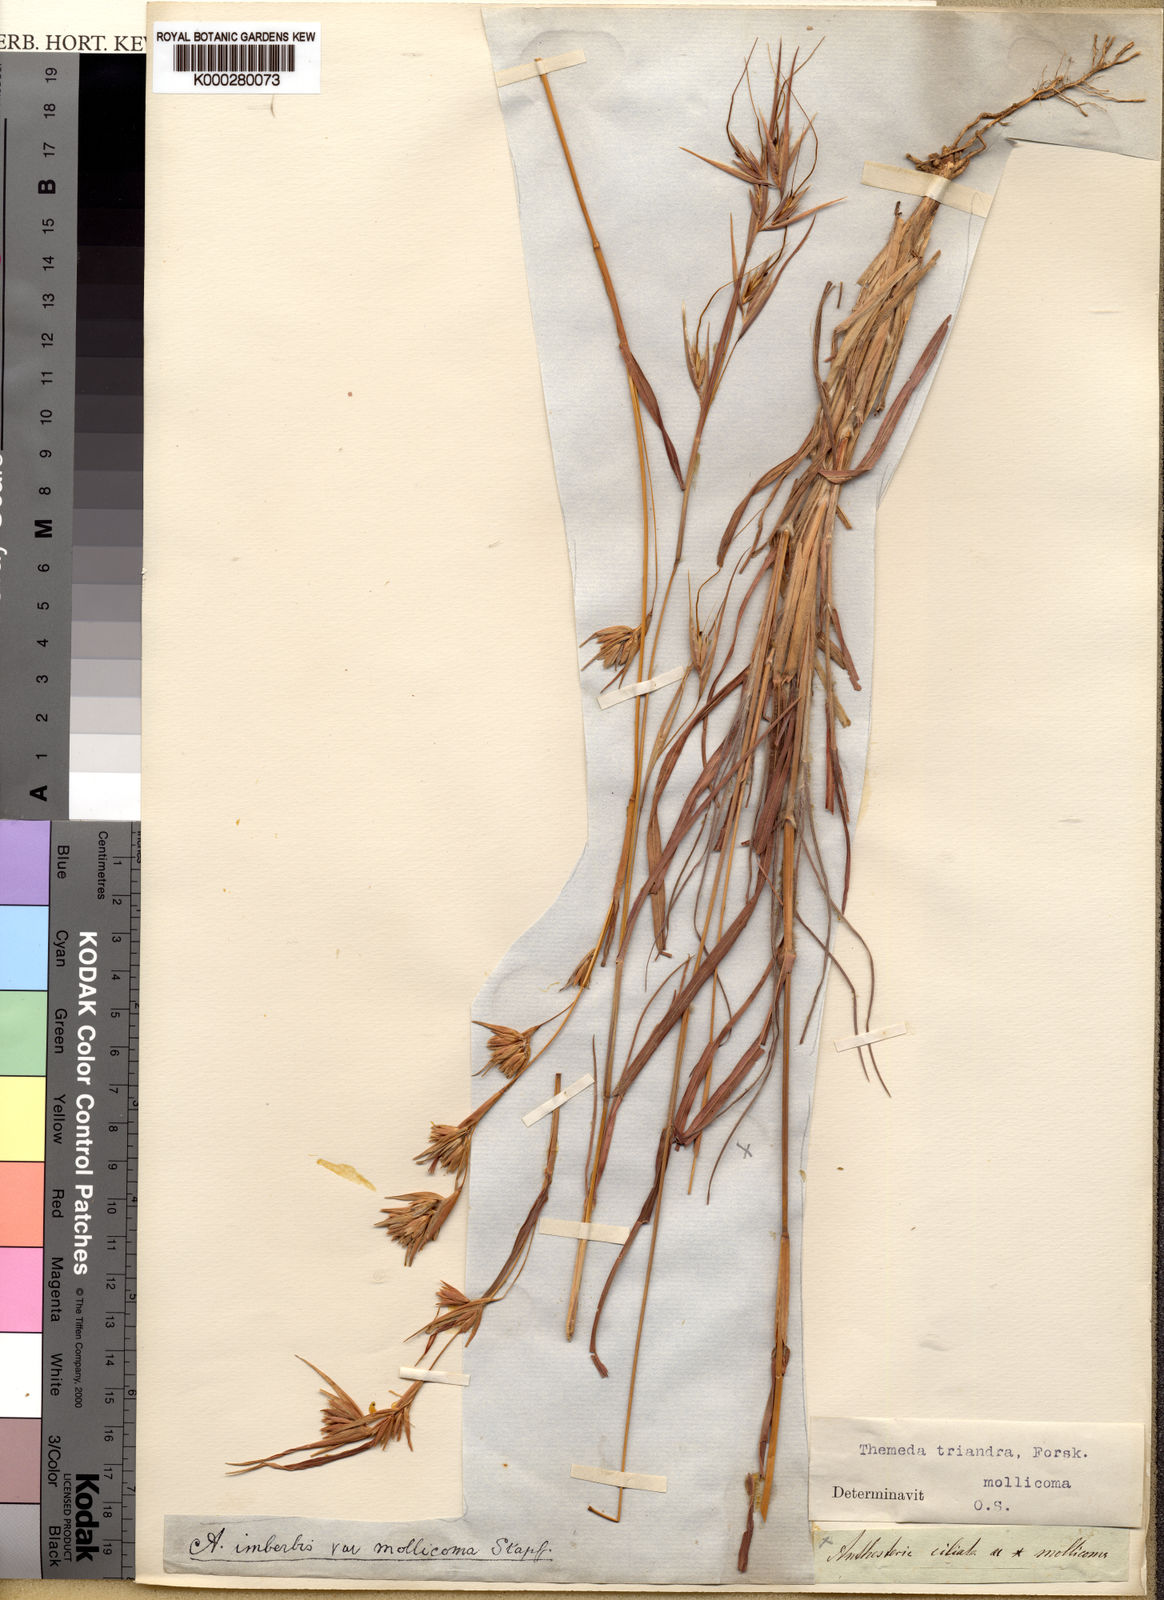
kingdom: Plantae
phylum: Tracheophyta
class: Liliopsida
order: Poales
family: Poaceae
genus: Themeda
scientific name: Themeda triandra
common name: Kangaroo grass
